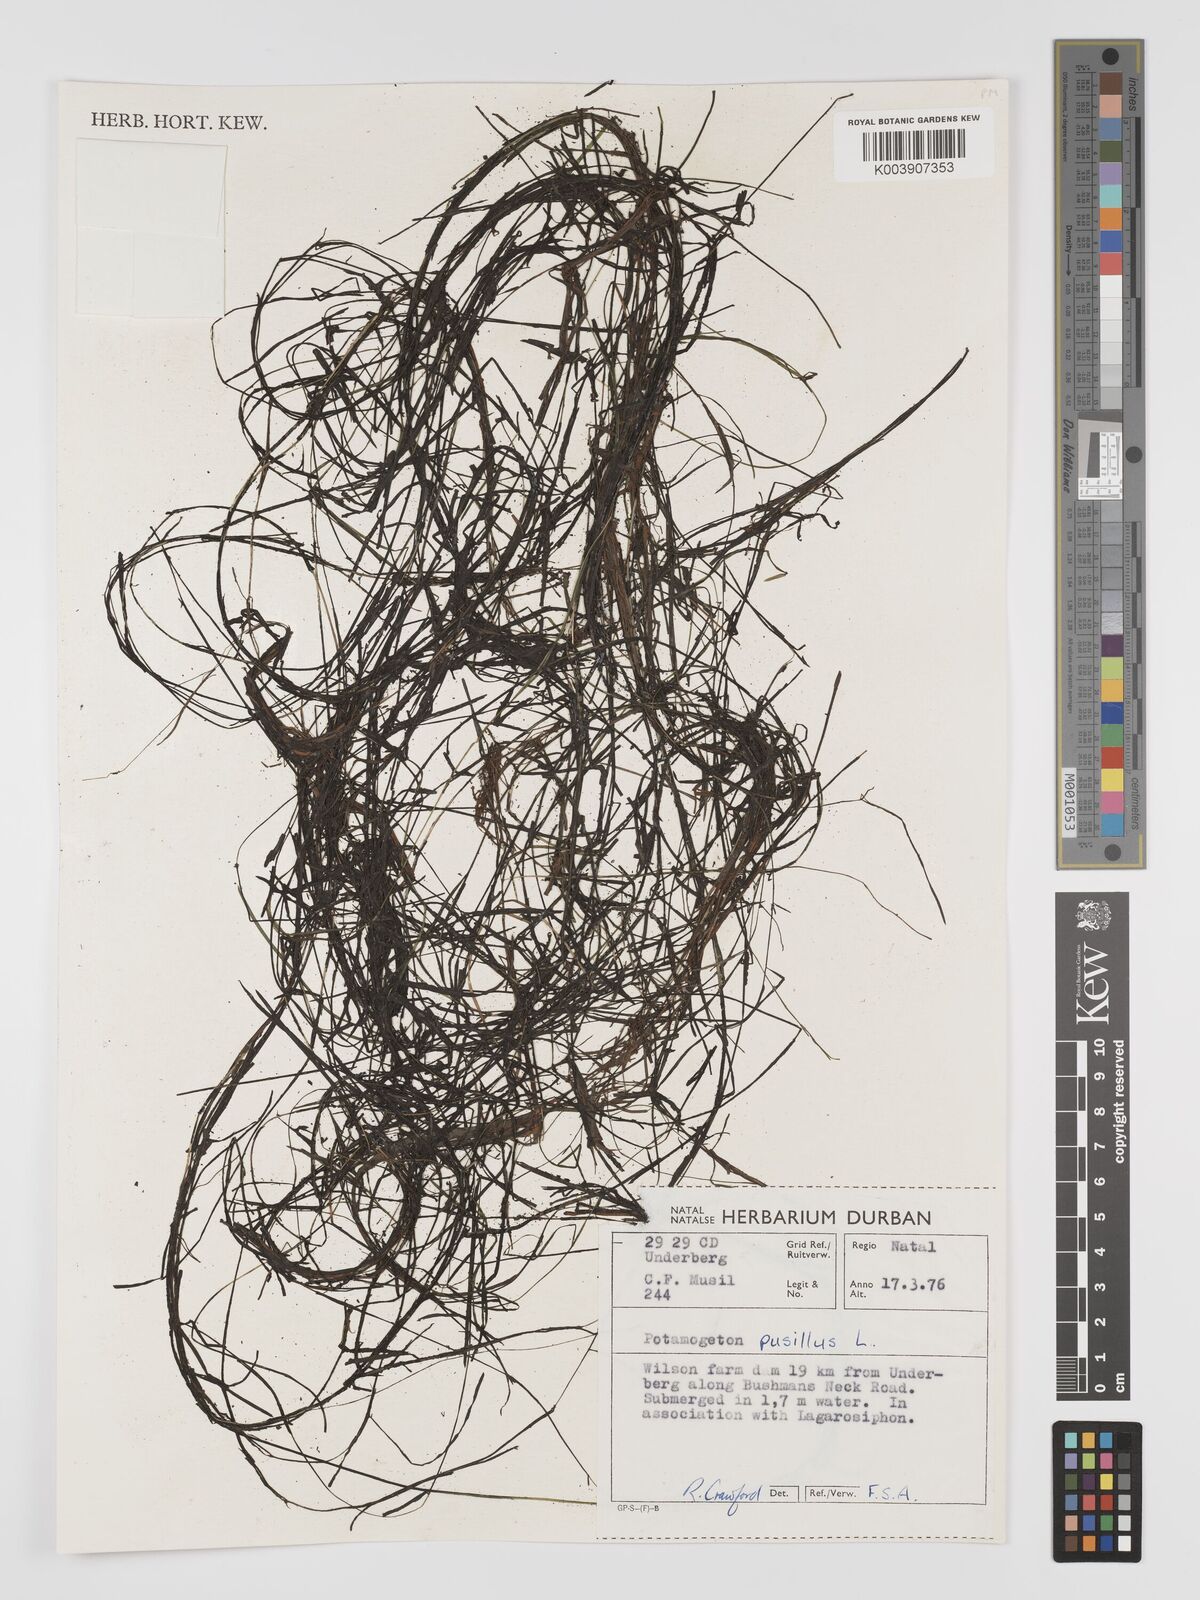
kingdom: Plantae
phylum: Tracheophyta
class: Liliopsida
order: Alismatales
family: Potamogetonaceae
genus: Potamogeton
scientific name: Potamogeton pusillus
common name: Lesser pondweed
